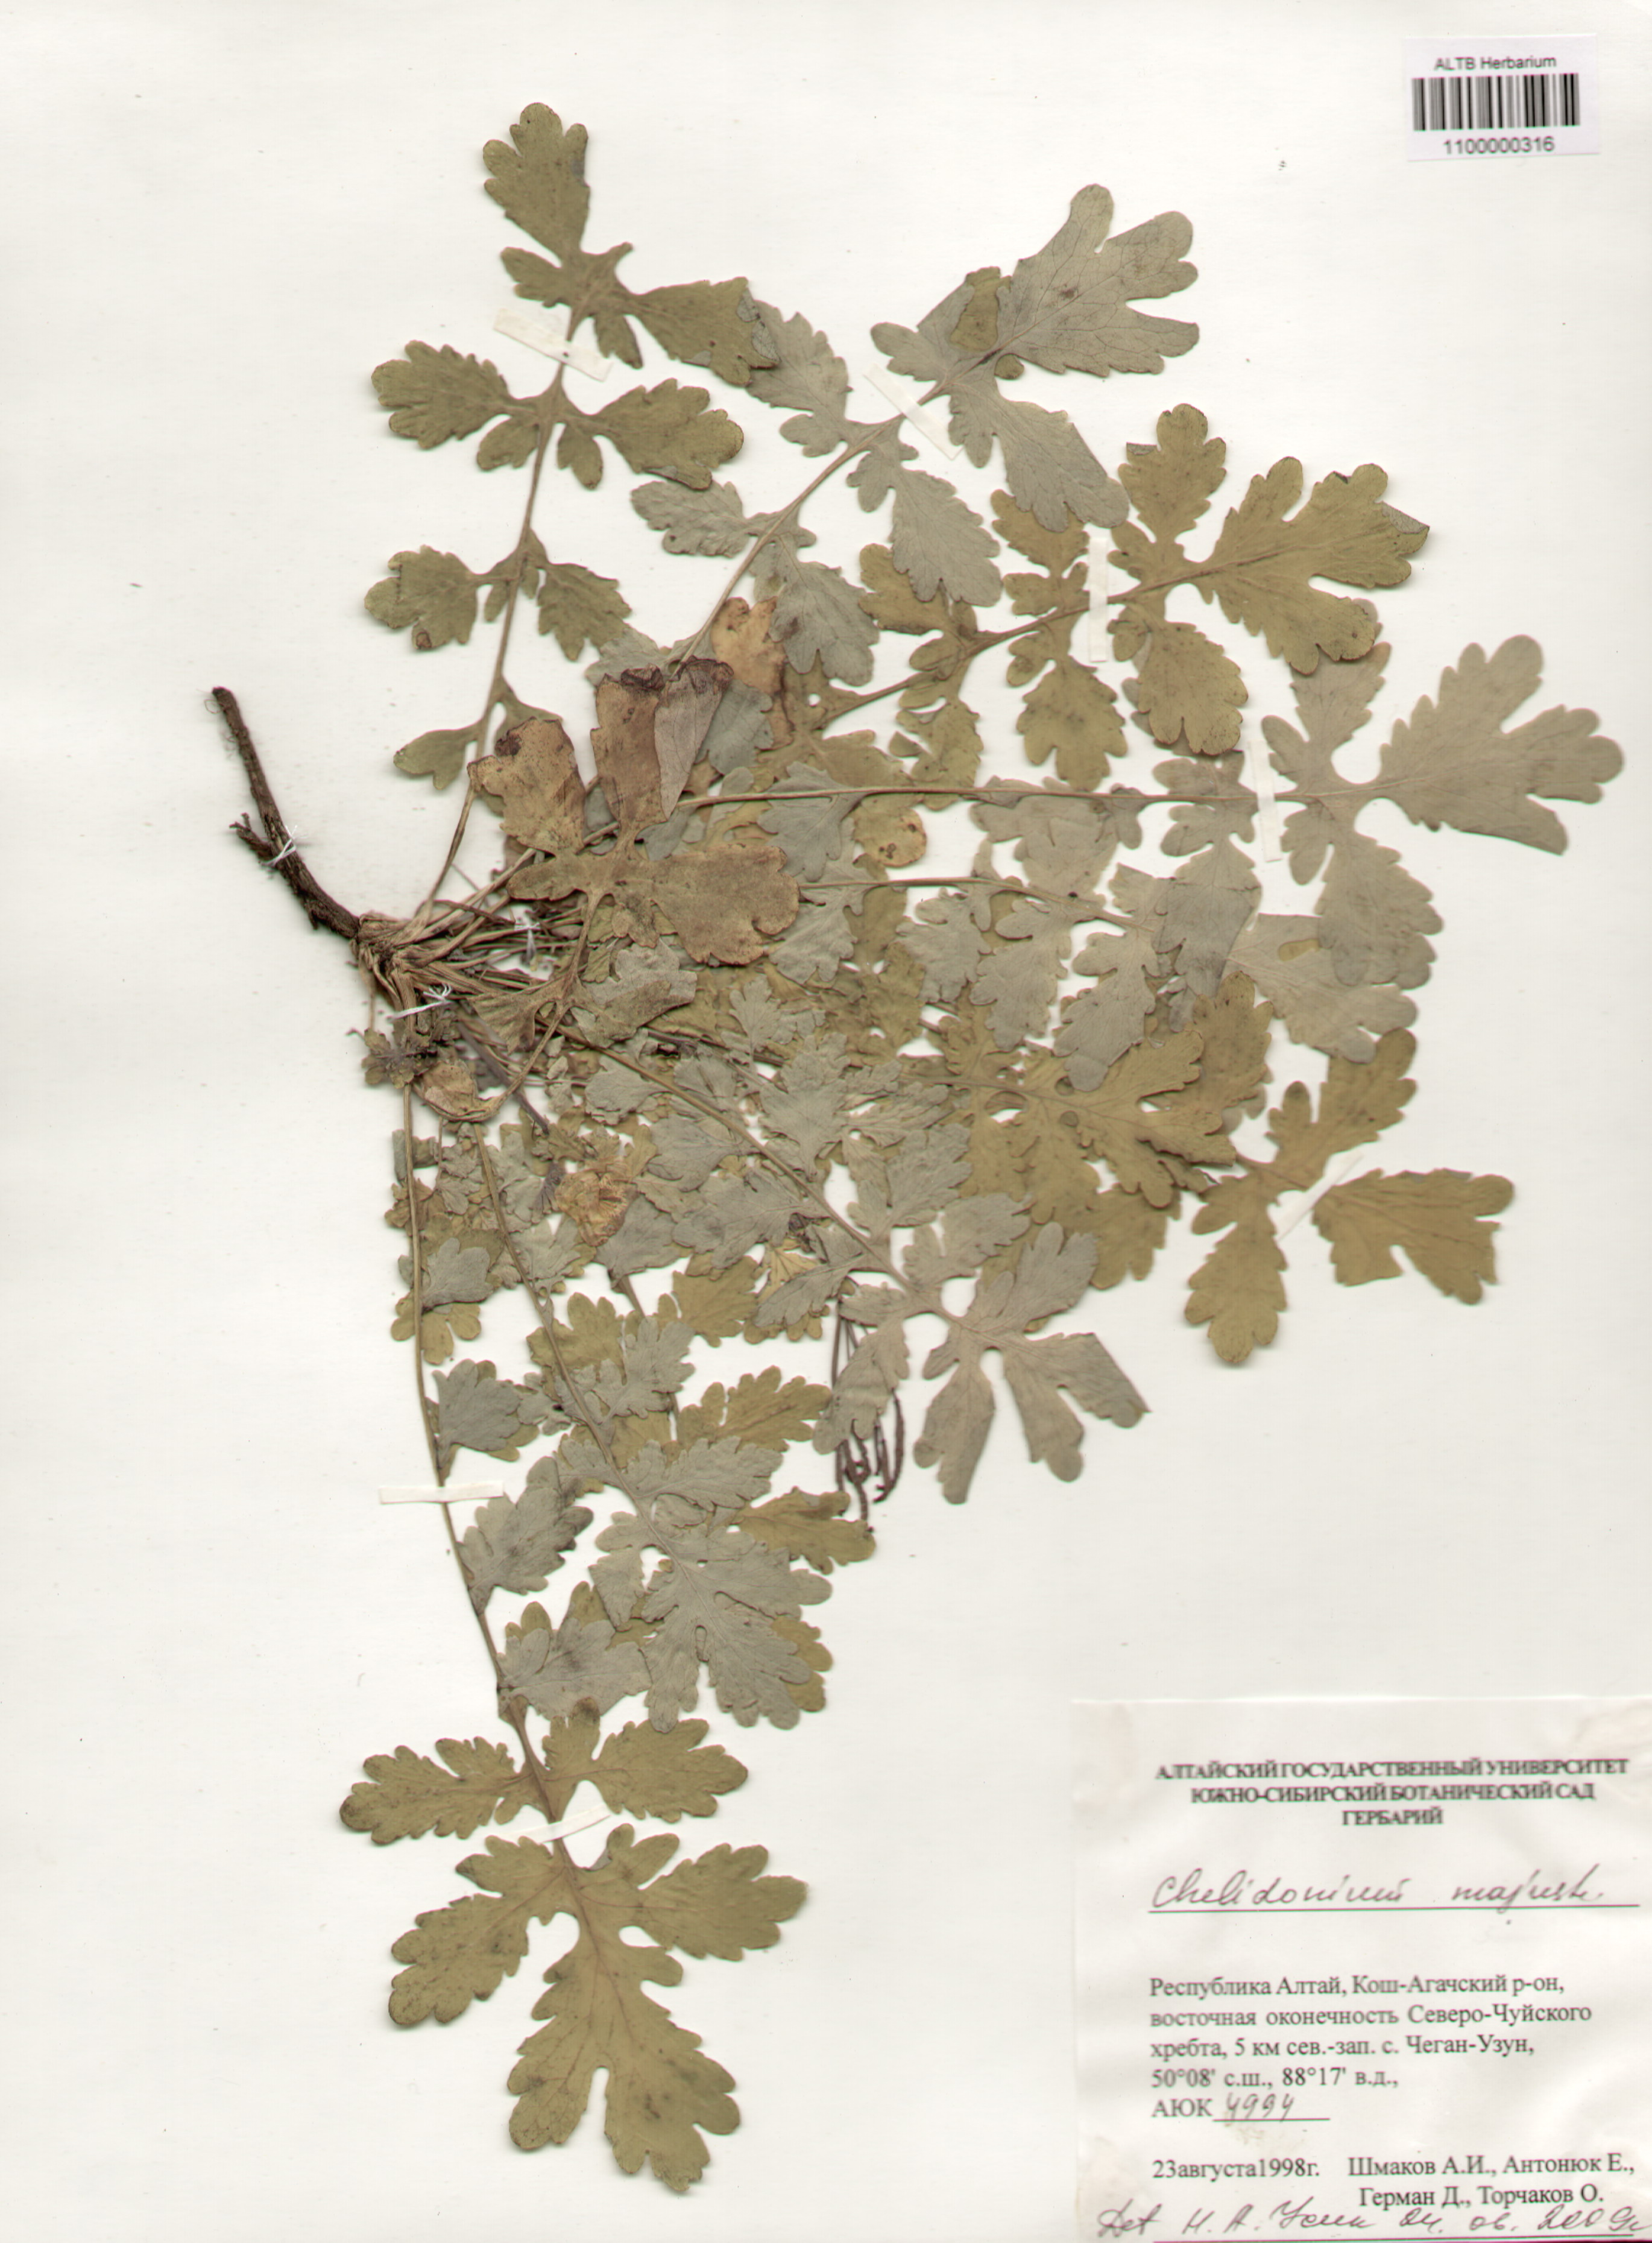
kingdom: Plantae
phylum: Tracheophyta
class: Magnoliopsida
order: Ranunculales
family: Papaveraceae
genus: Chelidonium
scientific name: Chelidonium majus
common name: Greater celandine
